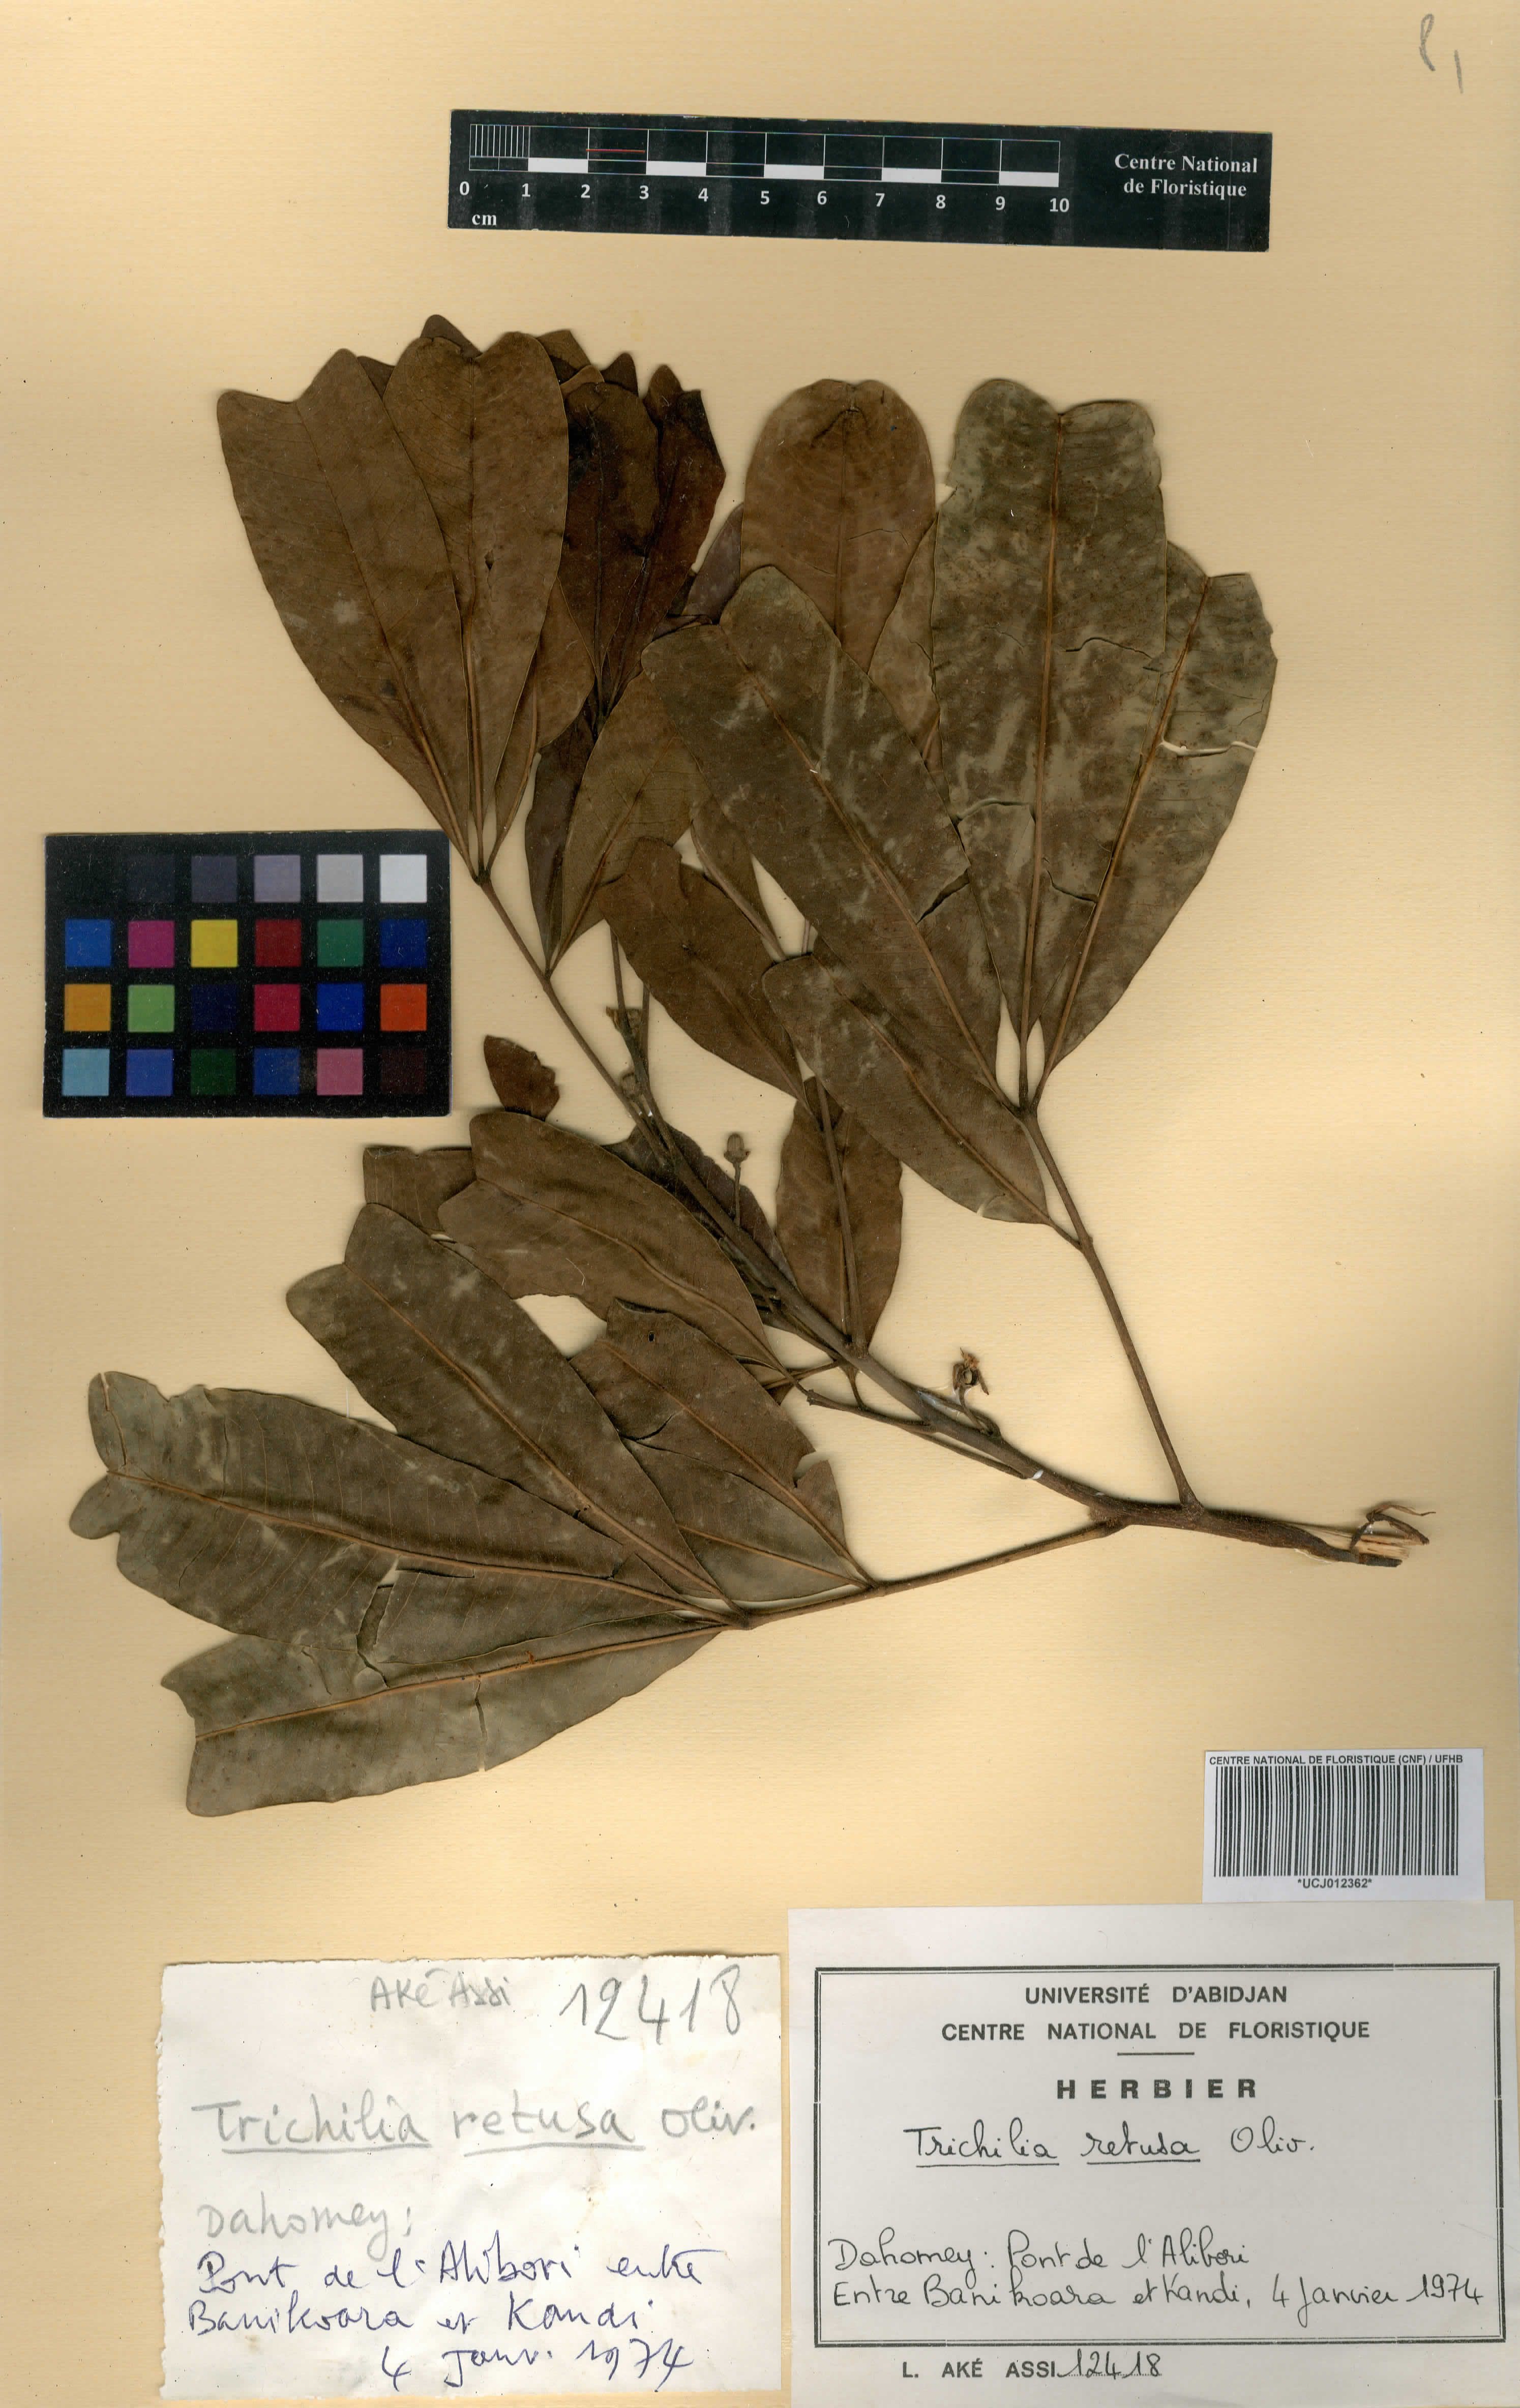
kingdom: Plantae
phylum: Tracheophyta
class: Magnoliopsida
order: Sapindales
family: Meliaceae
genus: Trichilia
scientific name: Trichilia retusa
